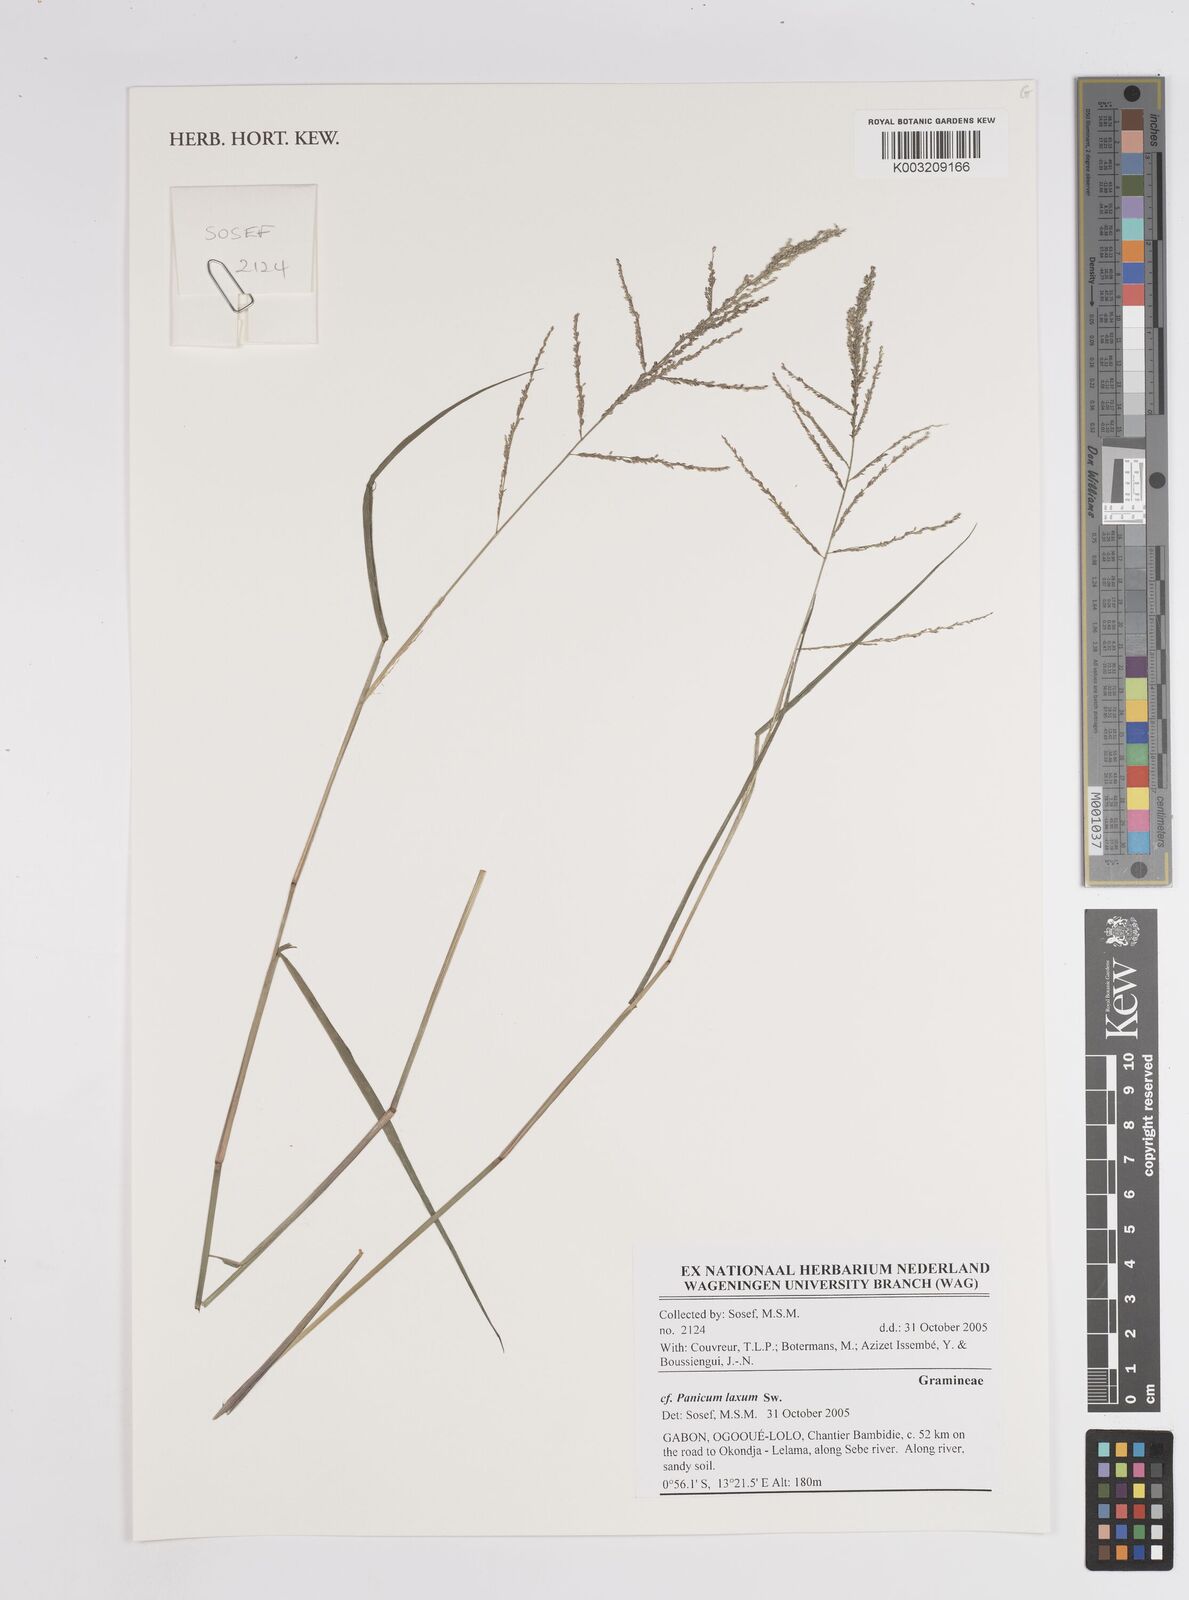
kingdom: Plantae
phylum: Tracheophyta
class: Liliopsida
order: Poales
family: Poaceae
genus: Steinchisma
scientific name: Steinchisma laxum
